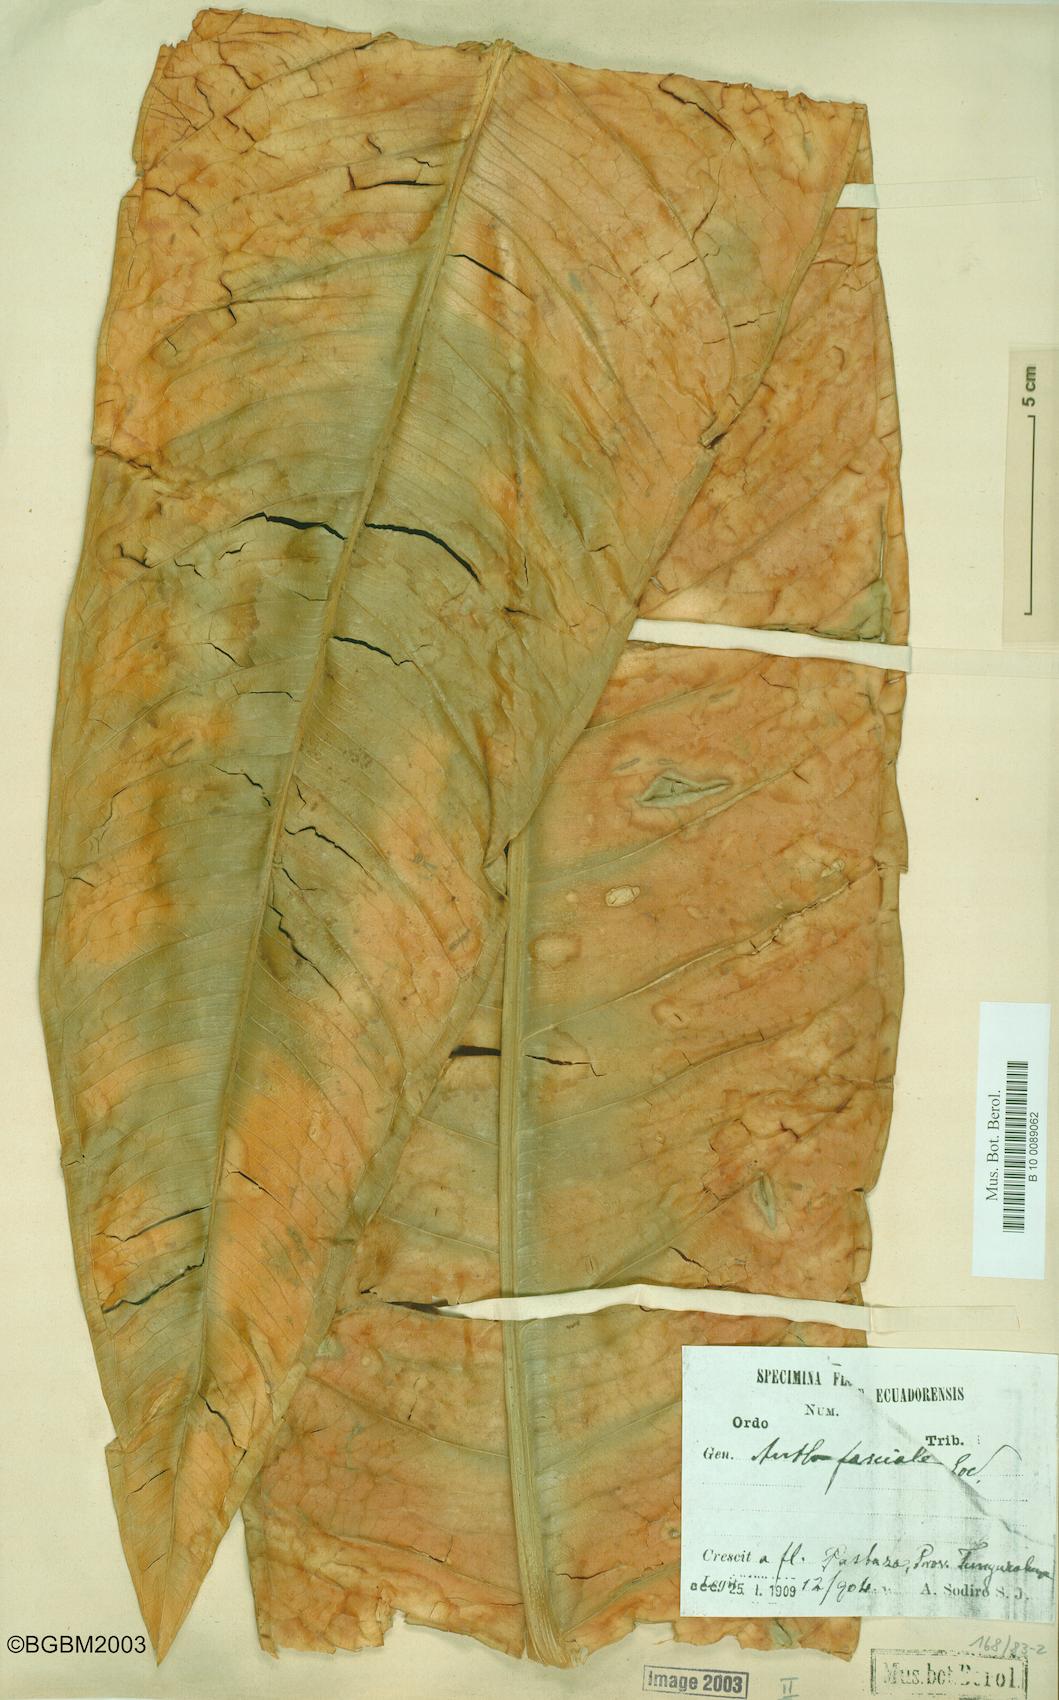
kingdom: Plantae
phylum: Tracheophyta
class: Liliopsida
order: Alismatales
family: Araceae
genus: Anthurium
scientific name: Anthurium fasciale
